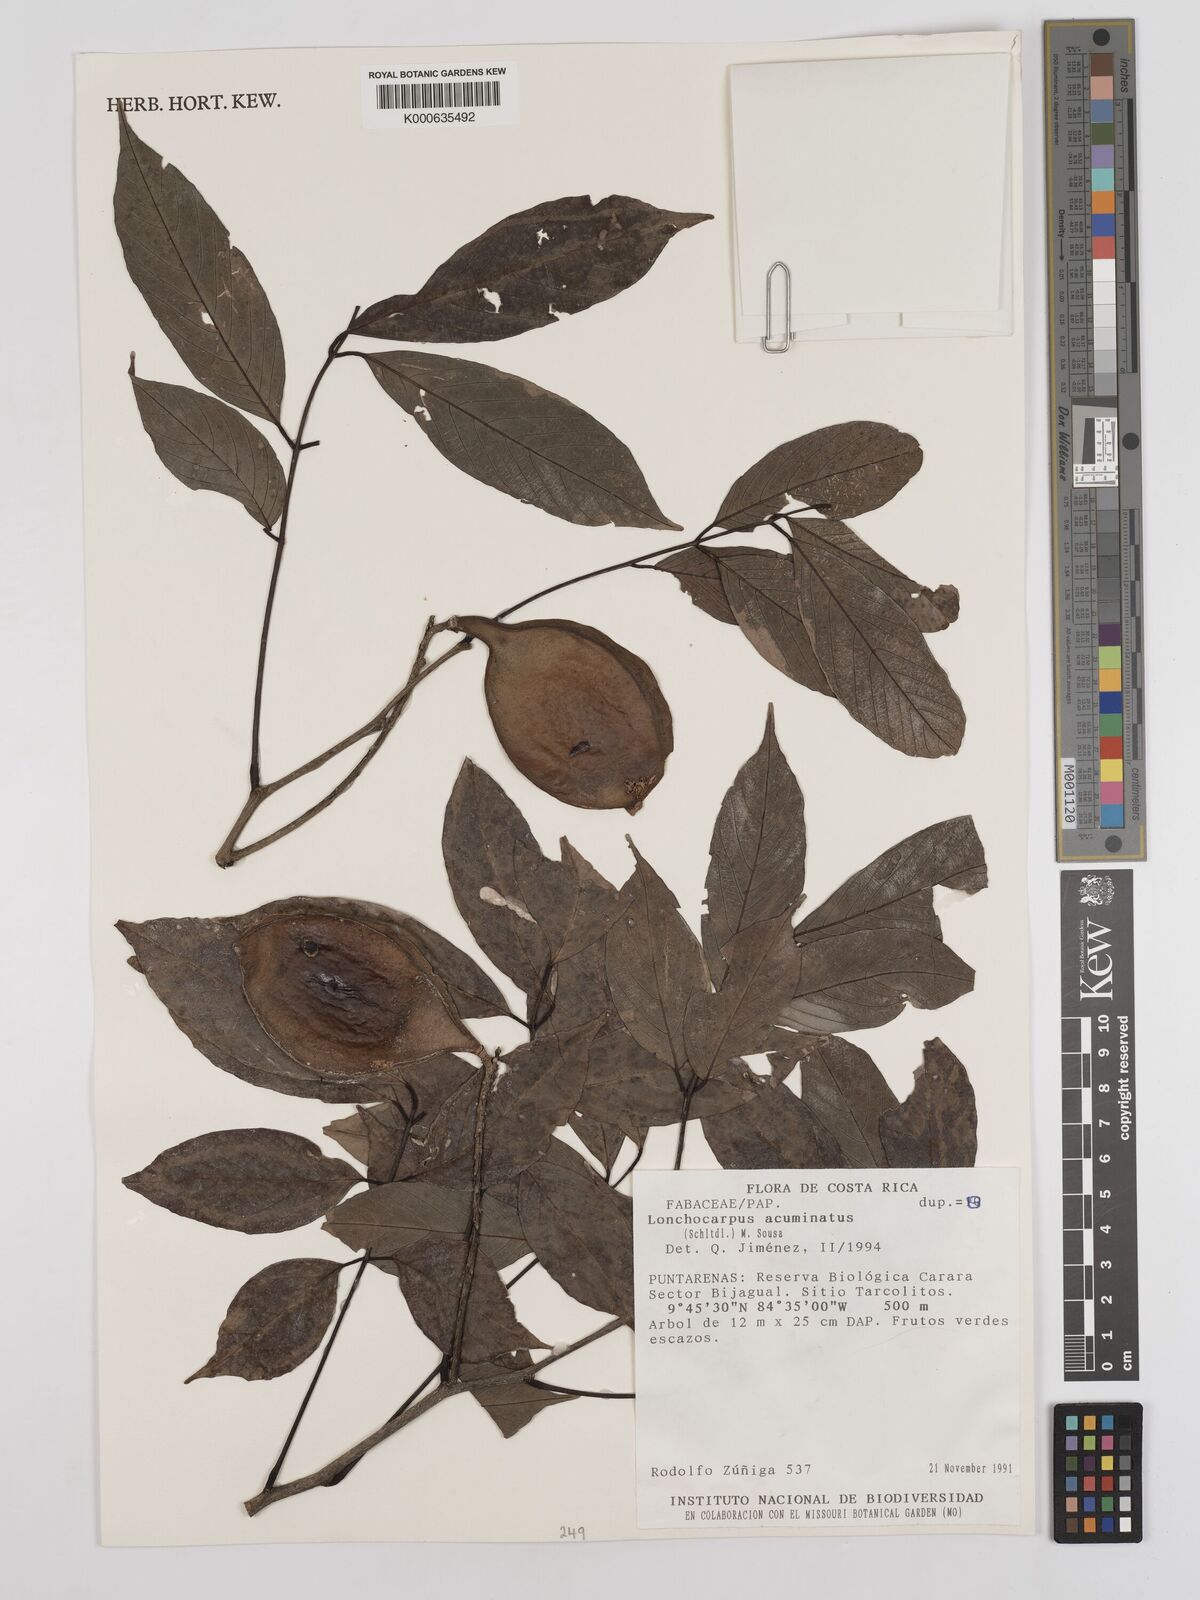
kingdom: Plantae
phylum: Tracheophyta
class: Magnoliopsida
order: Fabales
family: Fabaceae
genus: Lonchocarpus
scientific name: Lonchocarpus acuminatus
